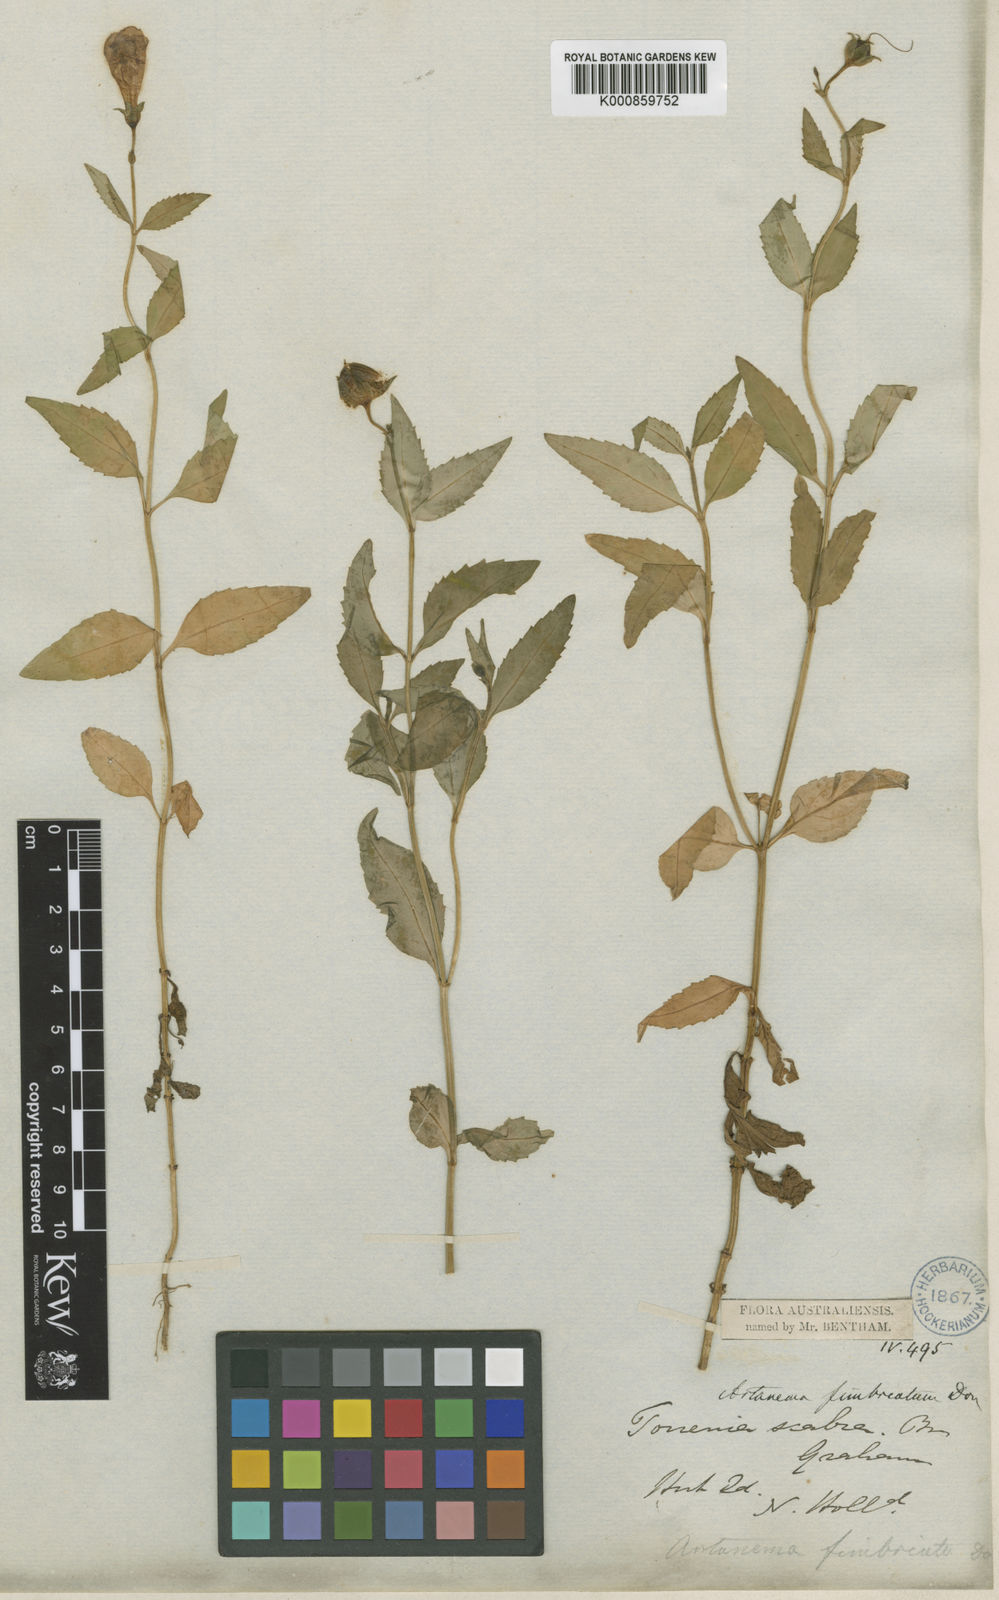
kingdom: Plantae
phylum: Tracheophyta
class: Magnoliopsida
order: Lamiales
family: Linderniaceae
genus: Artanema
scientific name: Artanema fimbriatum
